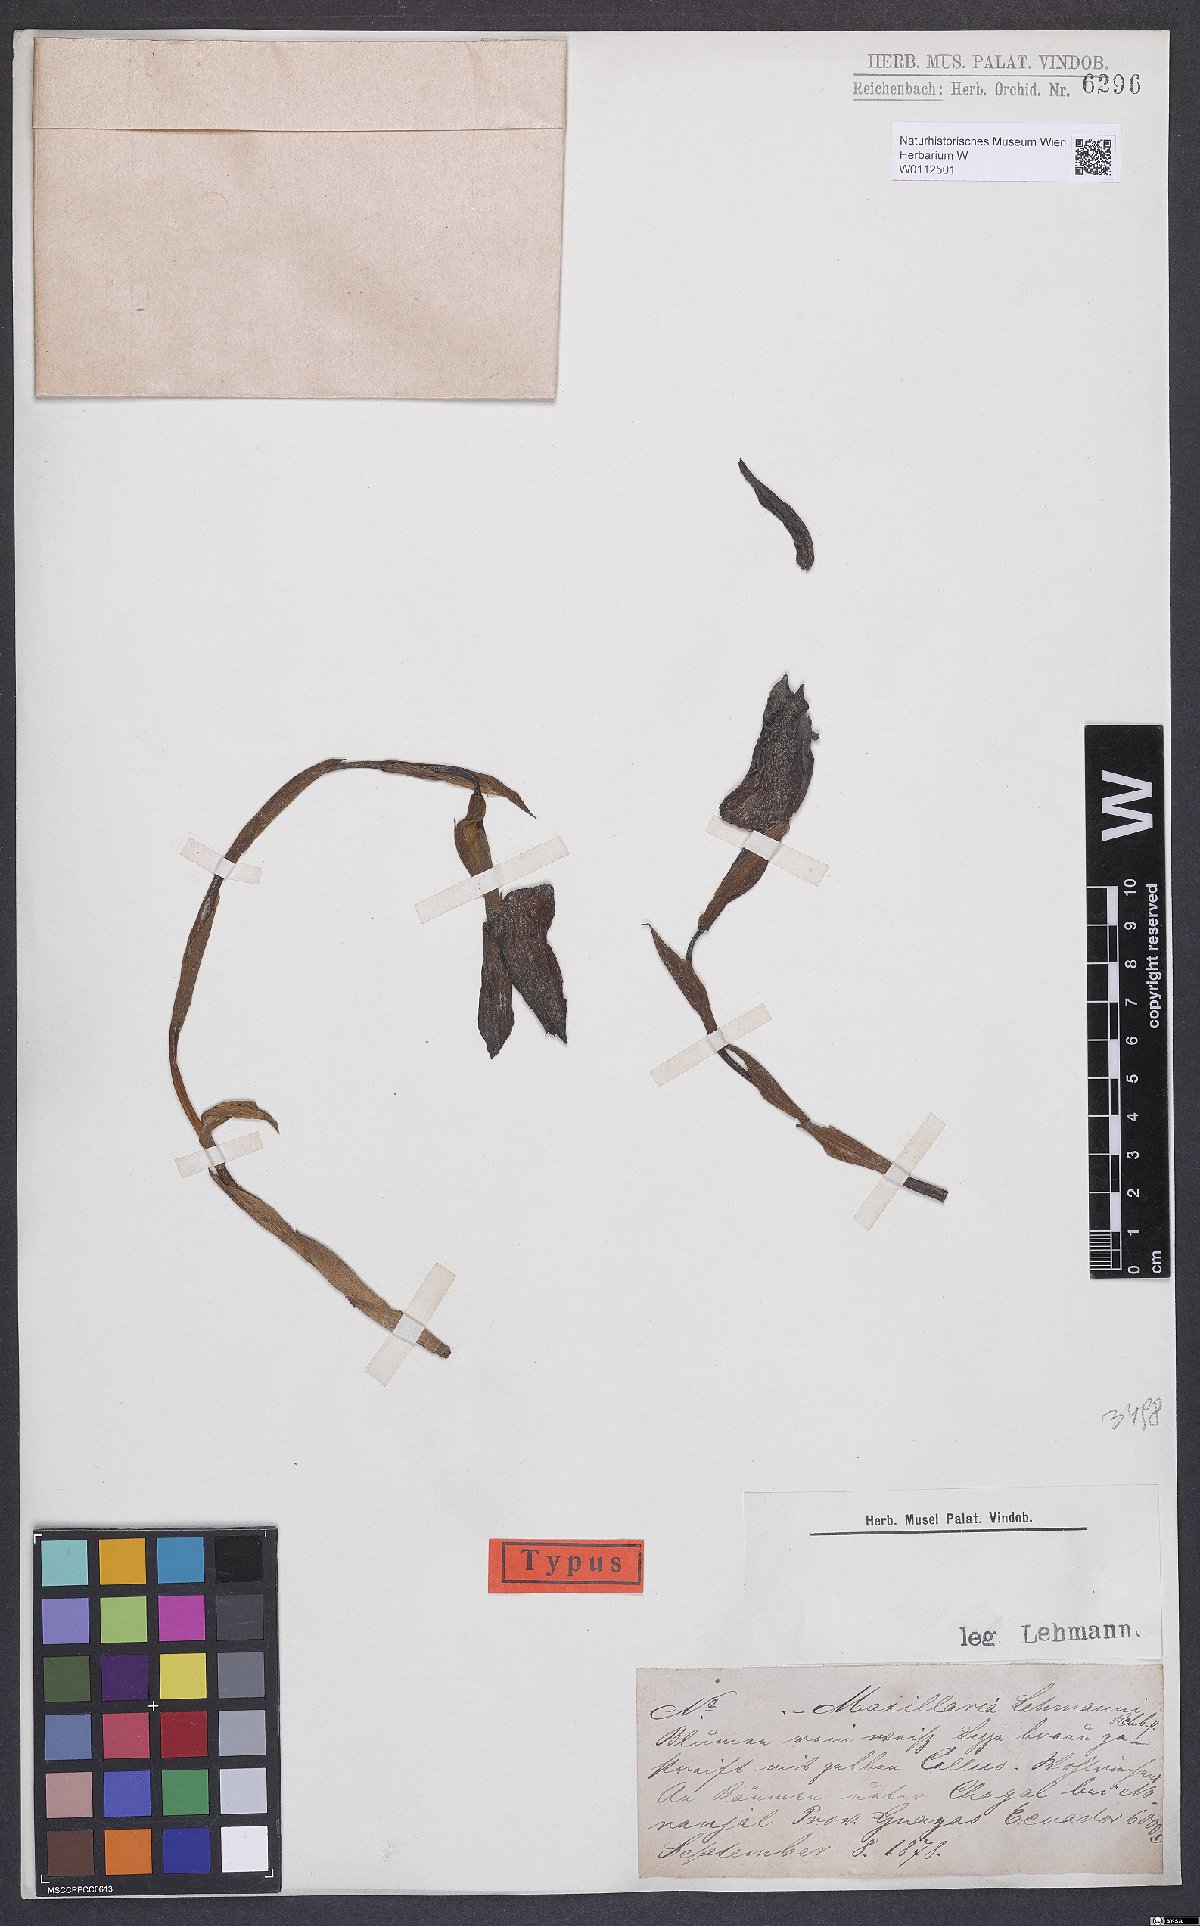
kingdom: Plantae
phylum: Tracheophyta
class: Liliopsida
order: Asparagales
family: Orchidaceae
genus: Maxillaria
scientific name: Maxillaria lehmannii
